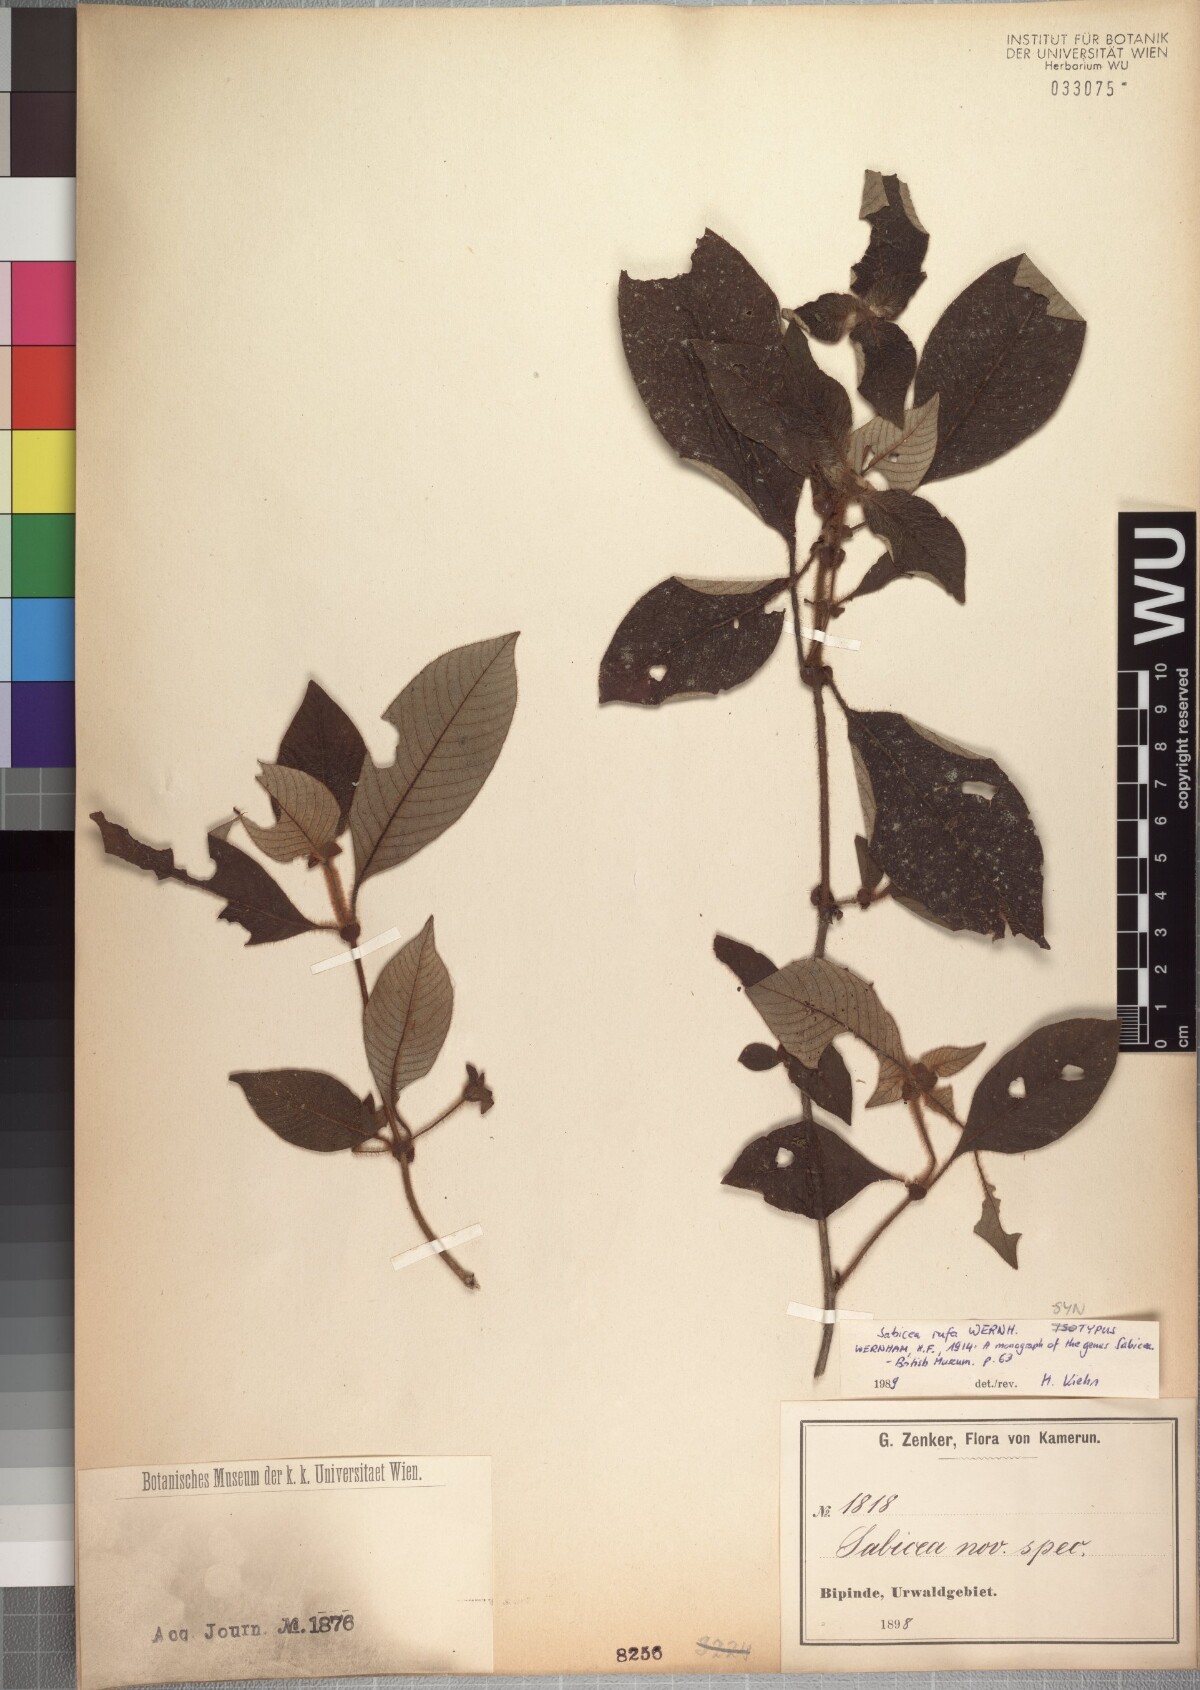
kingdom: Plantae
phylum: Tracheophyta
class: Magnoliopsida
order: Gentianales
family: Rubiaceae
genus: Sabicea
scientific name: Sabicea rufa
